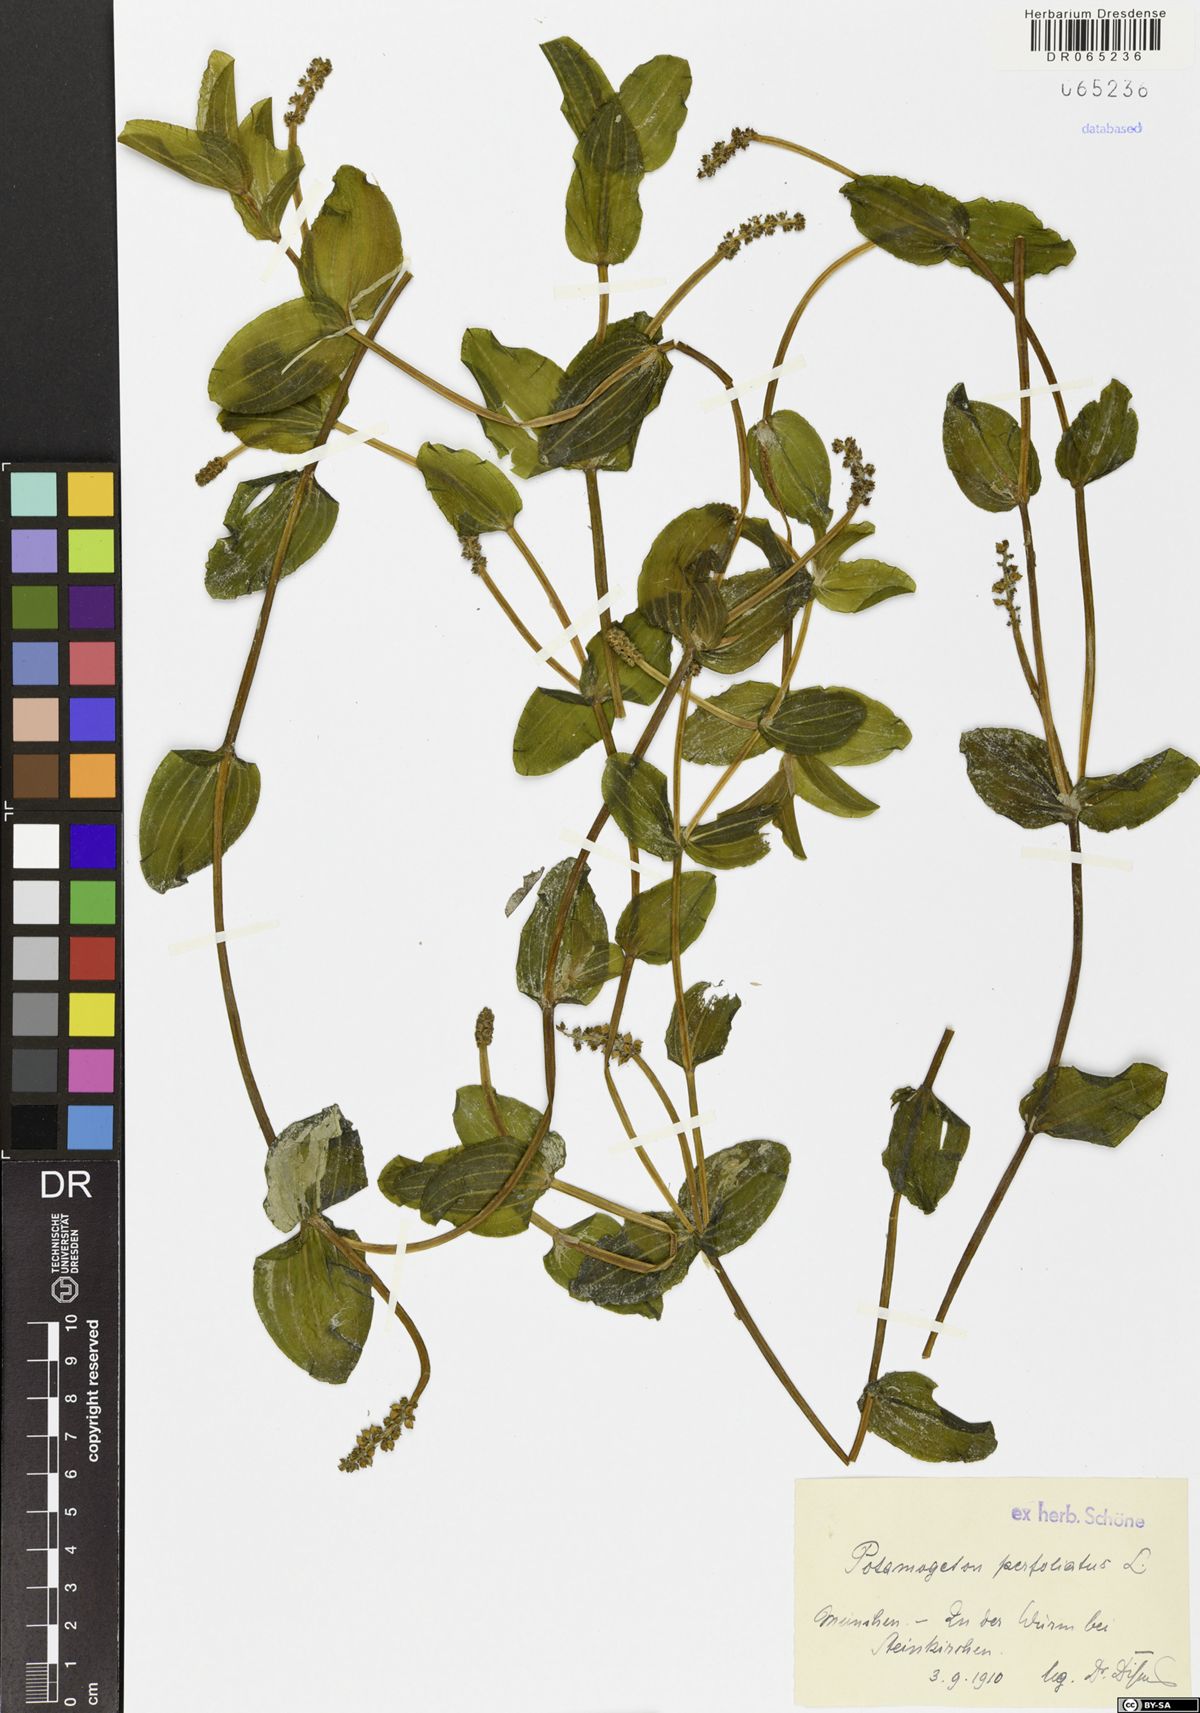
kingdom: Plantae
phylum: Tracheophyta
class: Liliopsida
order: Alismatales
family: Potamogetonaceae
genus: Potamogeton
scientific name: Potamogeton perfoliatus
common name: Perfoliate pondweed
